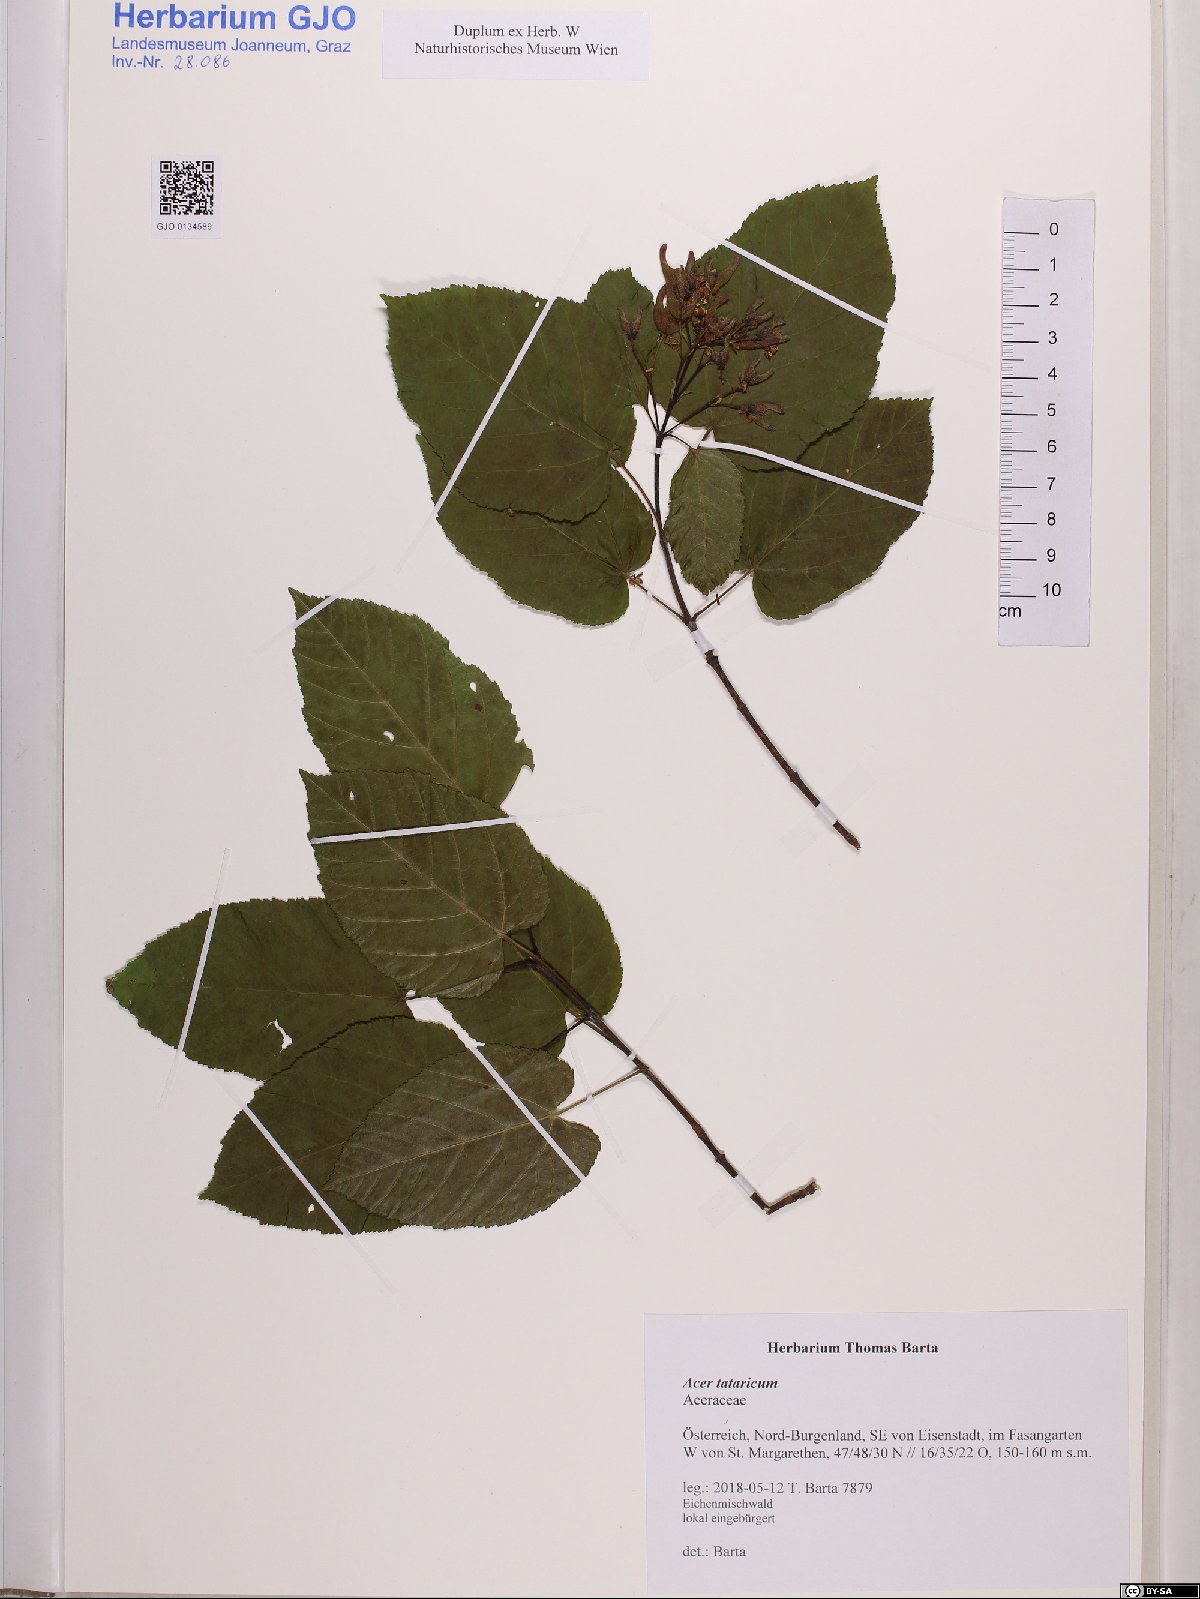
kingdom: Plantae
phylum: Tracheophyta
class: Magnoliopsida
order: Sapindales
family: Sapindaceae
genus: Acer
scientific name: Acer tataricum
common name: Tartar maple
